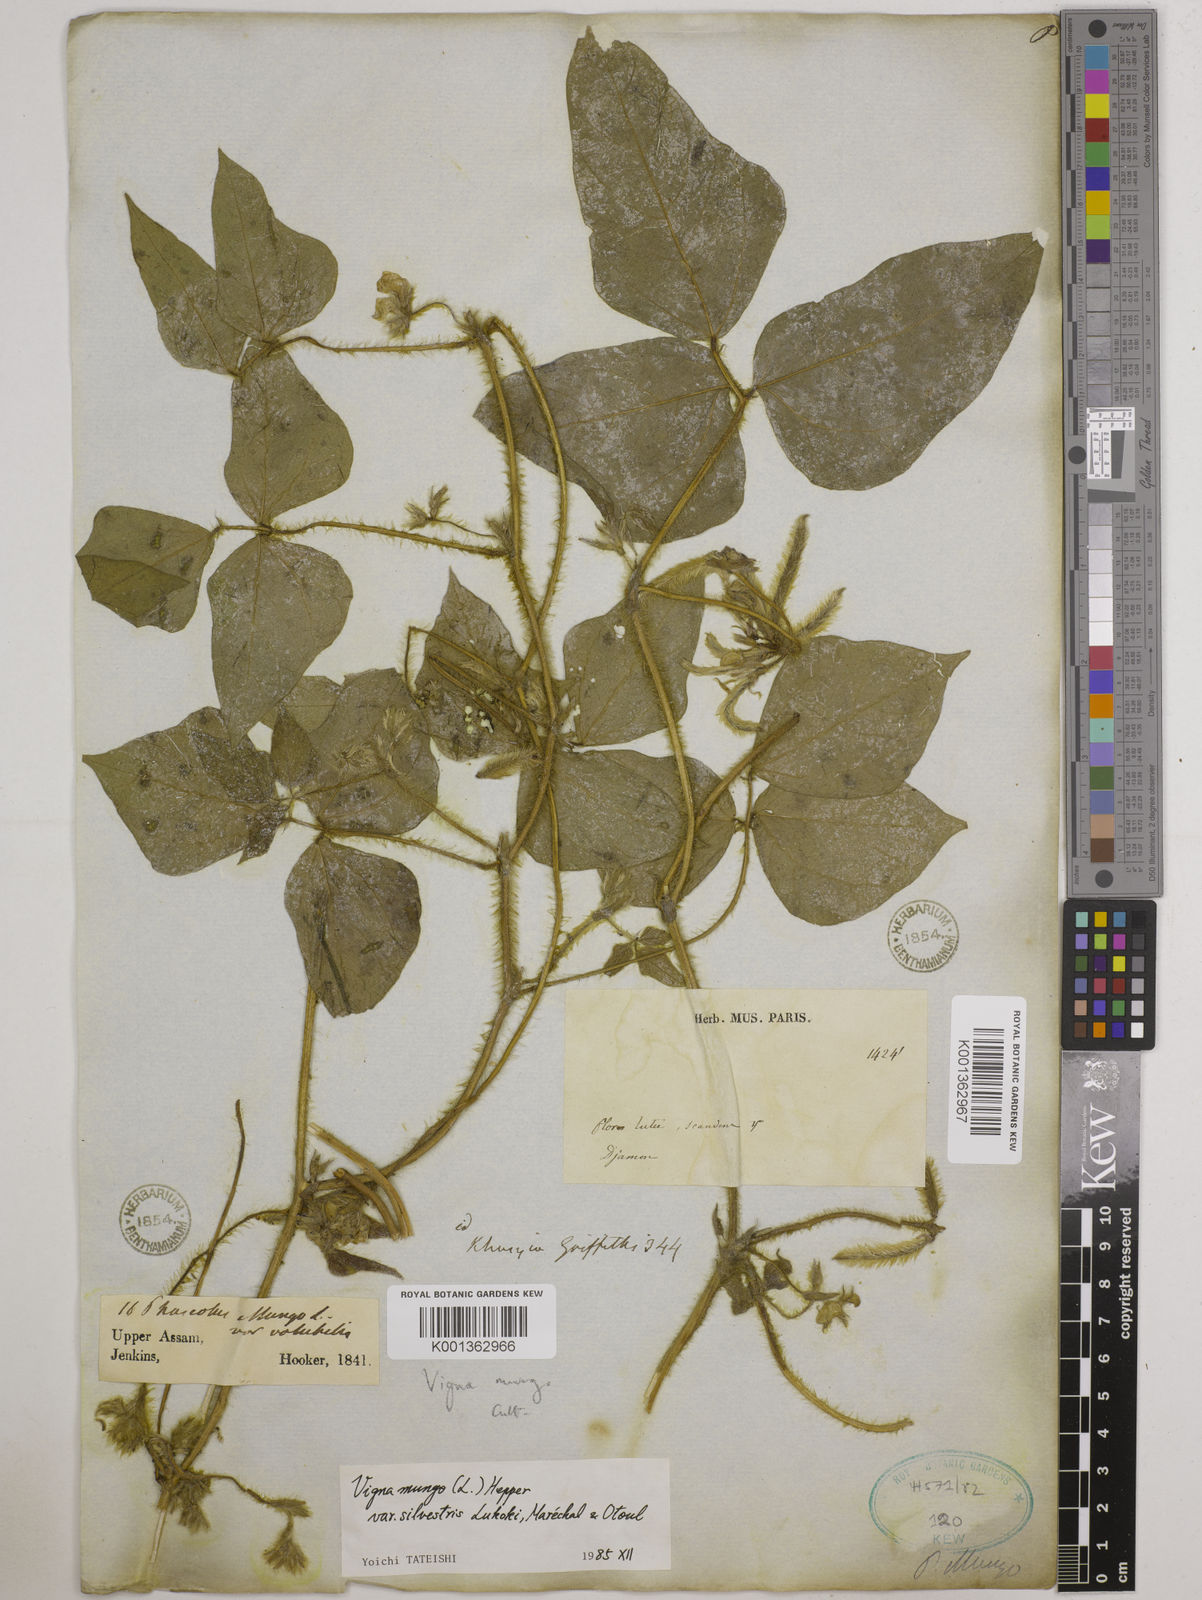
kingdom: Plantae
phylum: Tracheophyta
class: Magnoliopsida
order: Fabales
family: Fabaceae
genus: Vigna
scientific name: Vigna mungo
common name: Black gram
